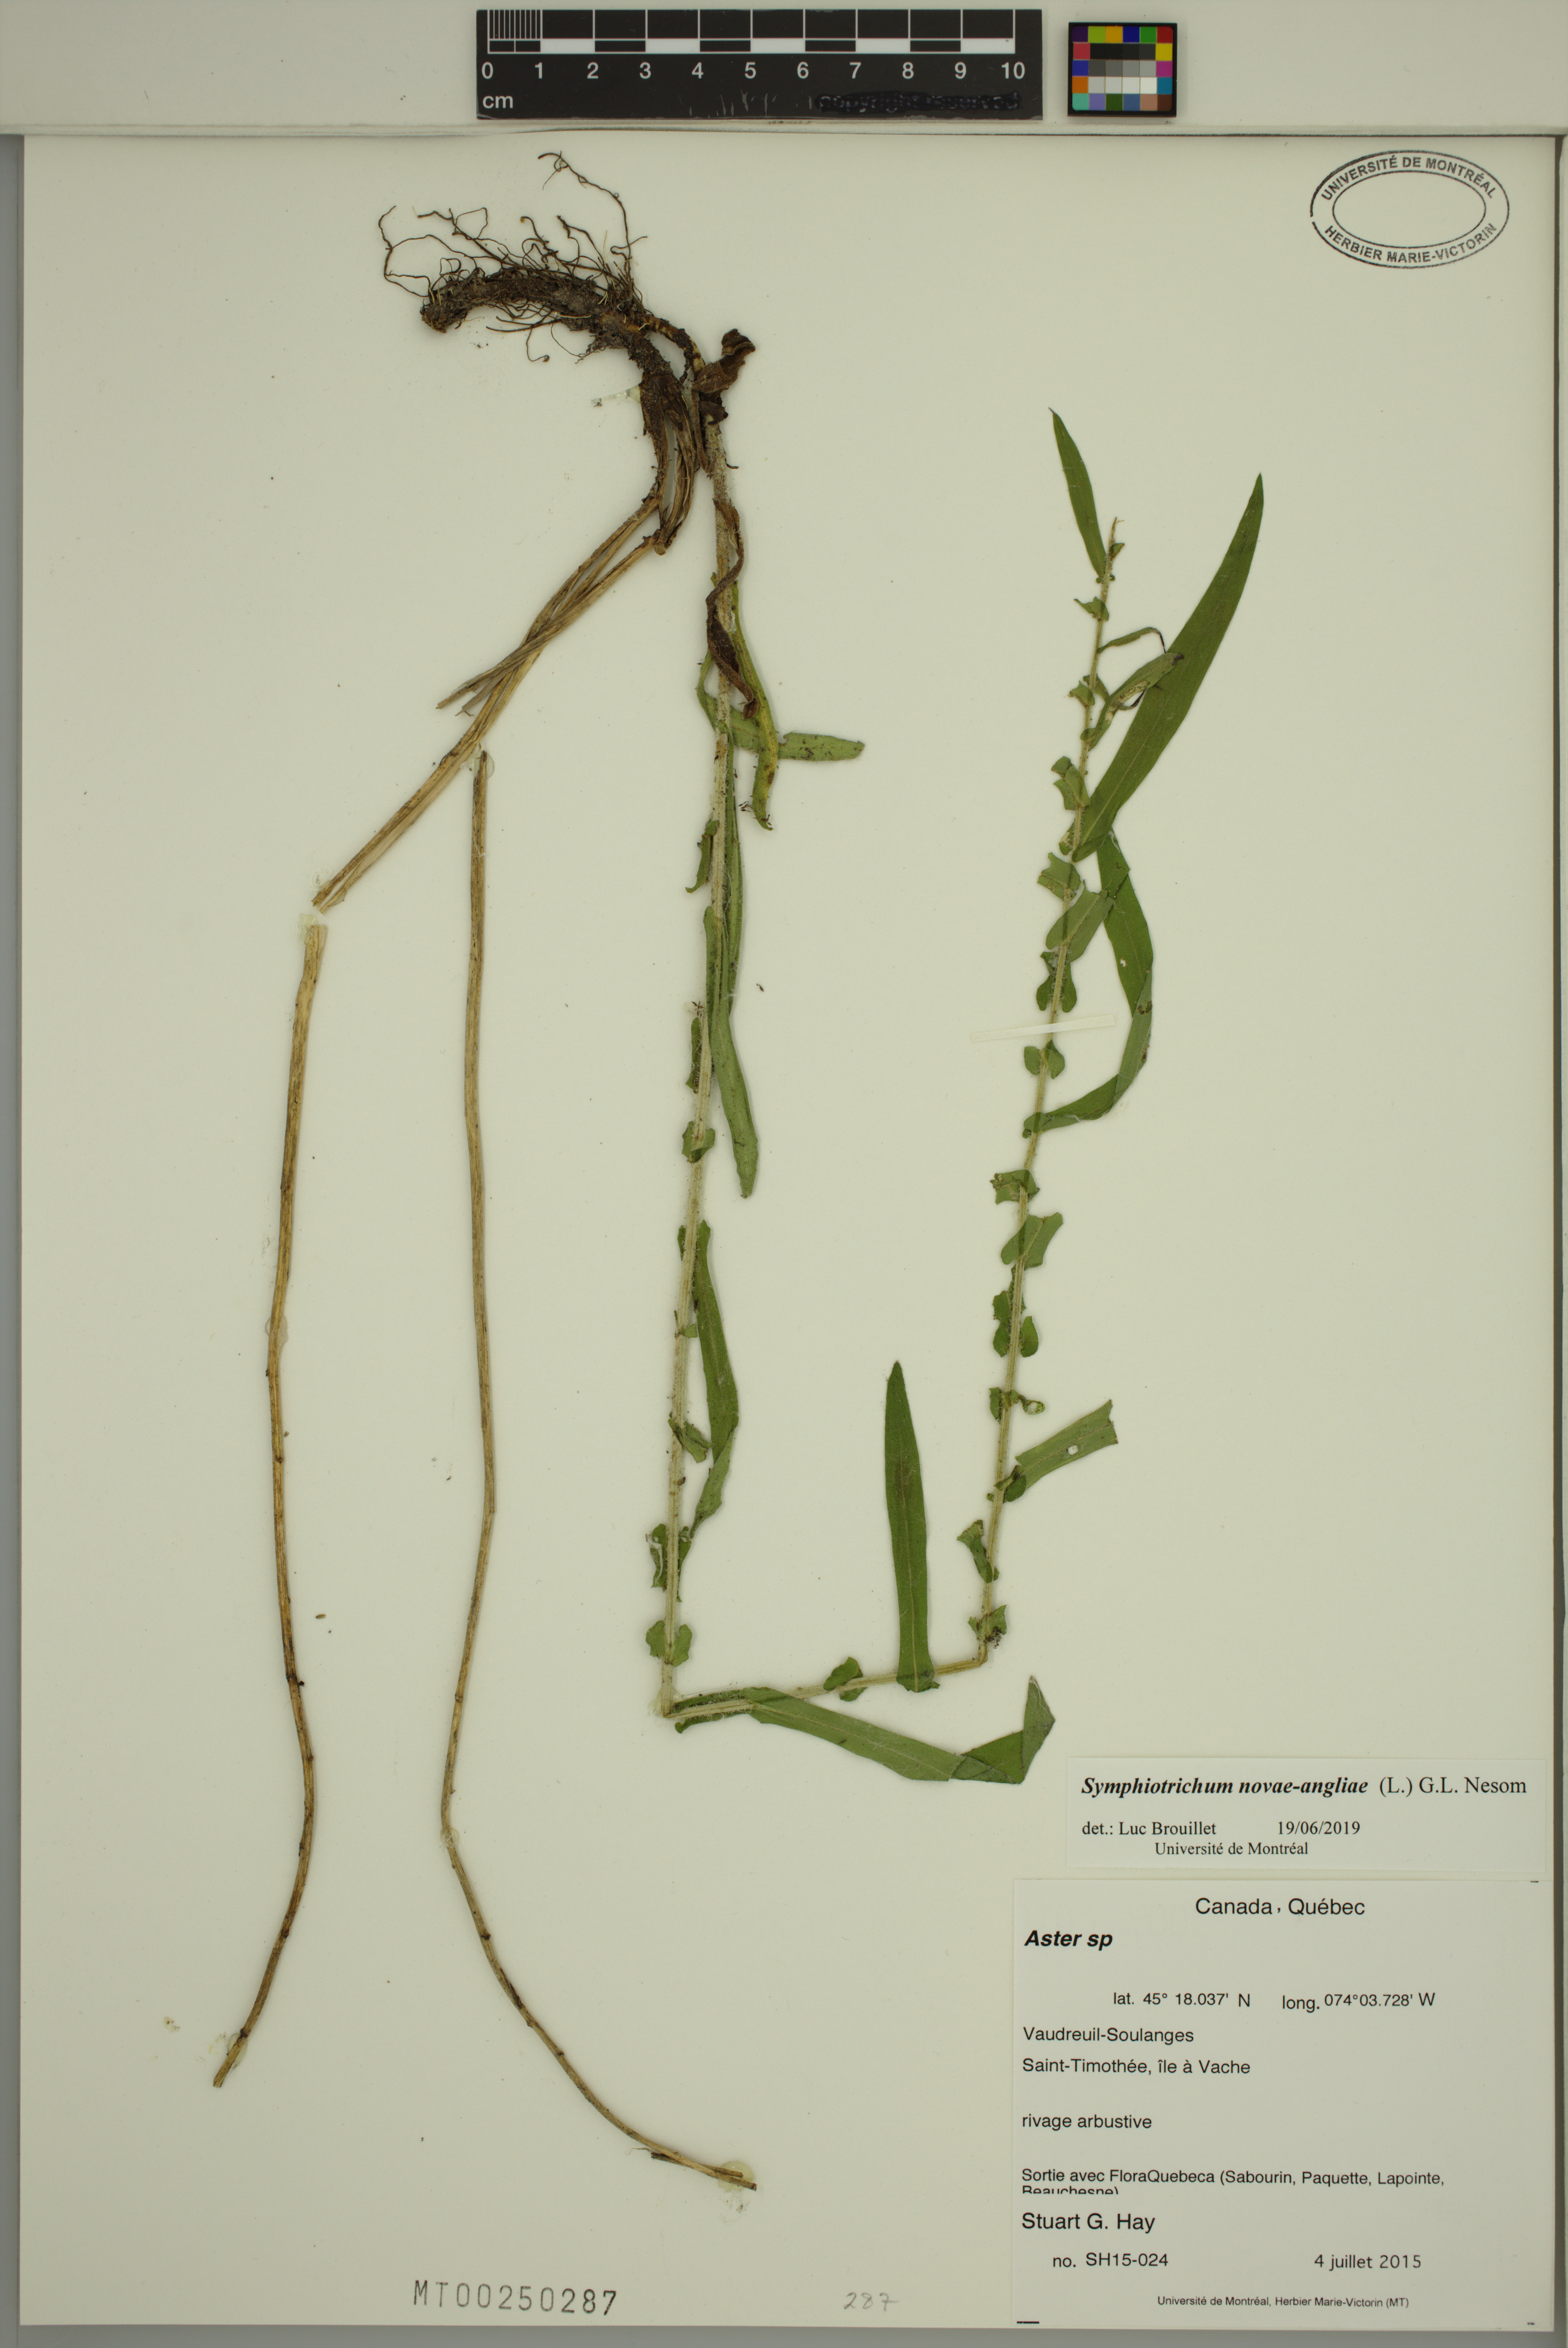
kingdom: Plantae
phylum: Tracheophyta
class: Magnoliopsida
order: Asterales
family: Asteraceae
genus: Symphyotrichum
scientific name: Symphyotrichum novae-angliae
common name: Michaelmas daisy
